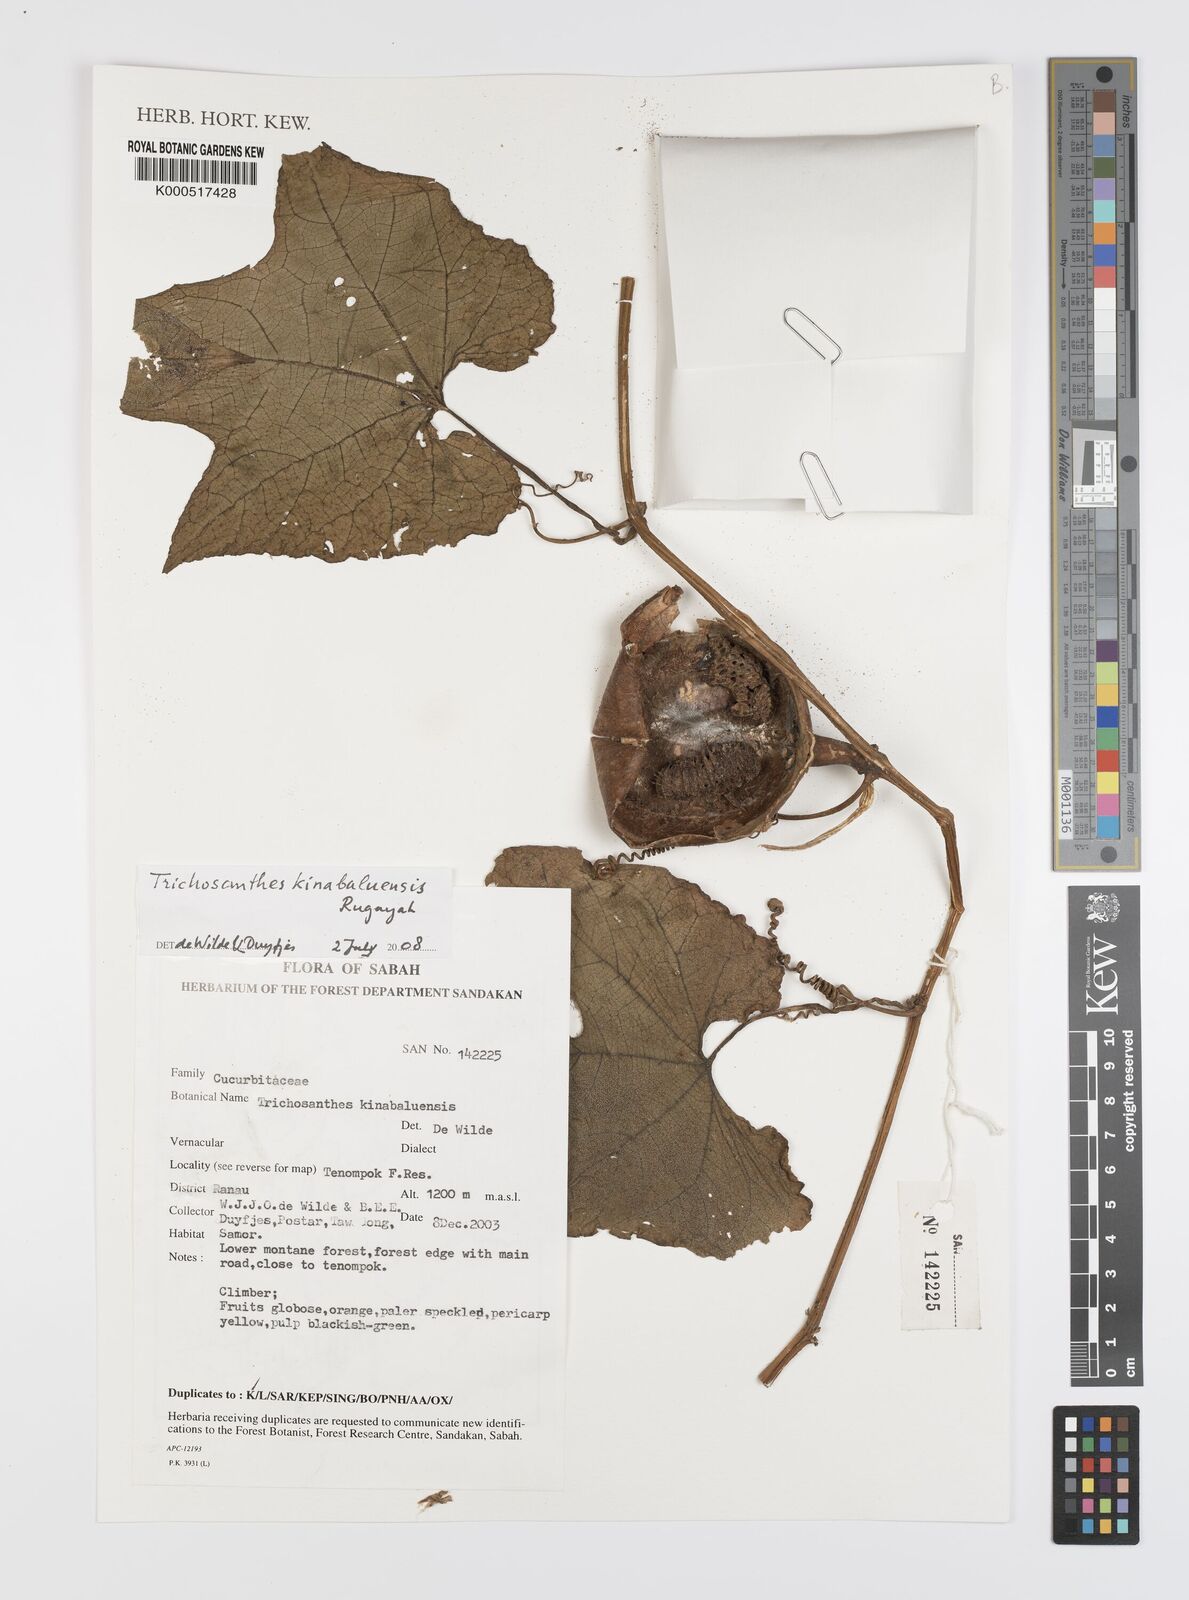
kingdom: Plantae
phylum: Tracheophyta
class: Magnoliopsida
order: Cucurbitales
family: Cucurbitaceae
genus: Trichosanthes
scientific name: Trichosanthes kinabaluensis
